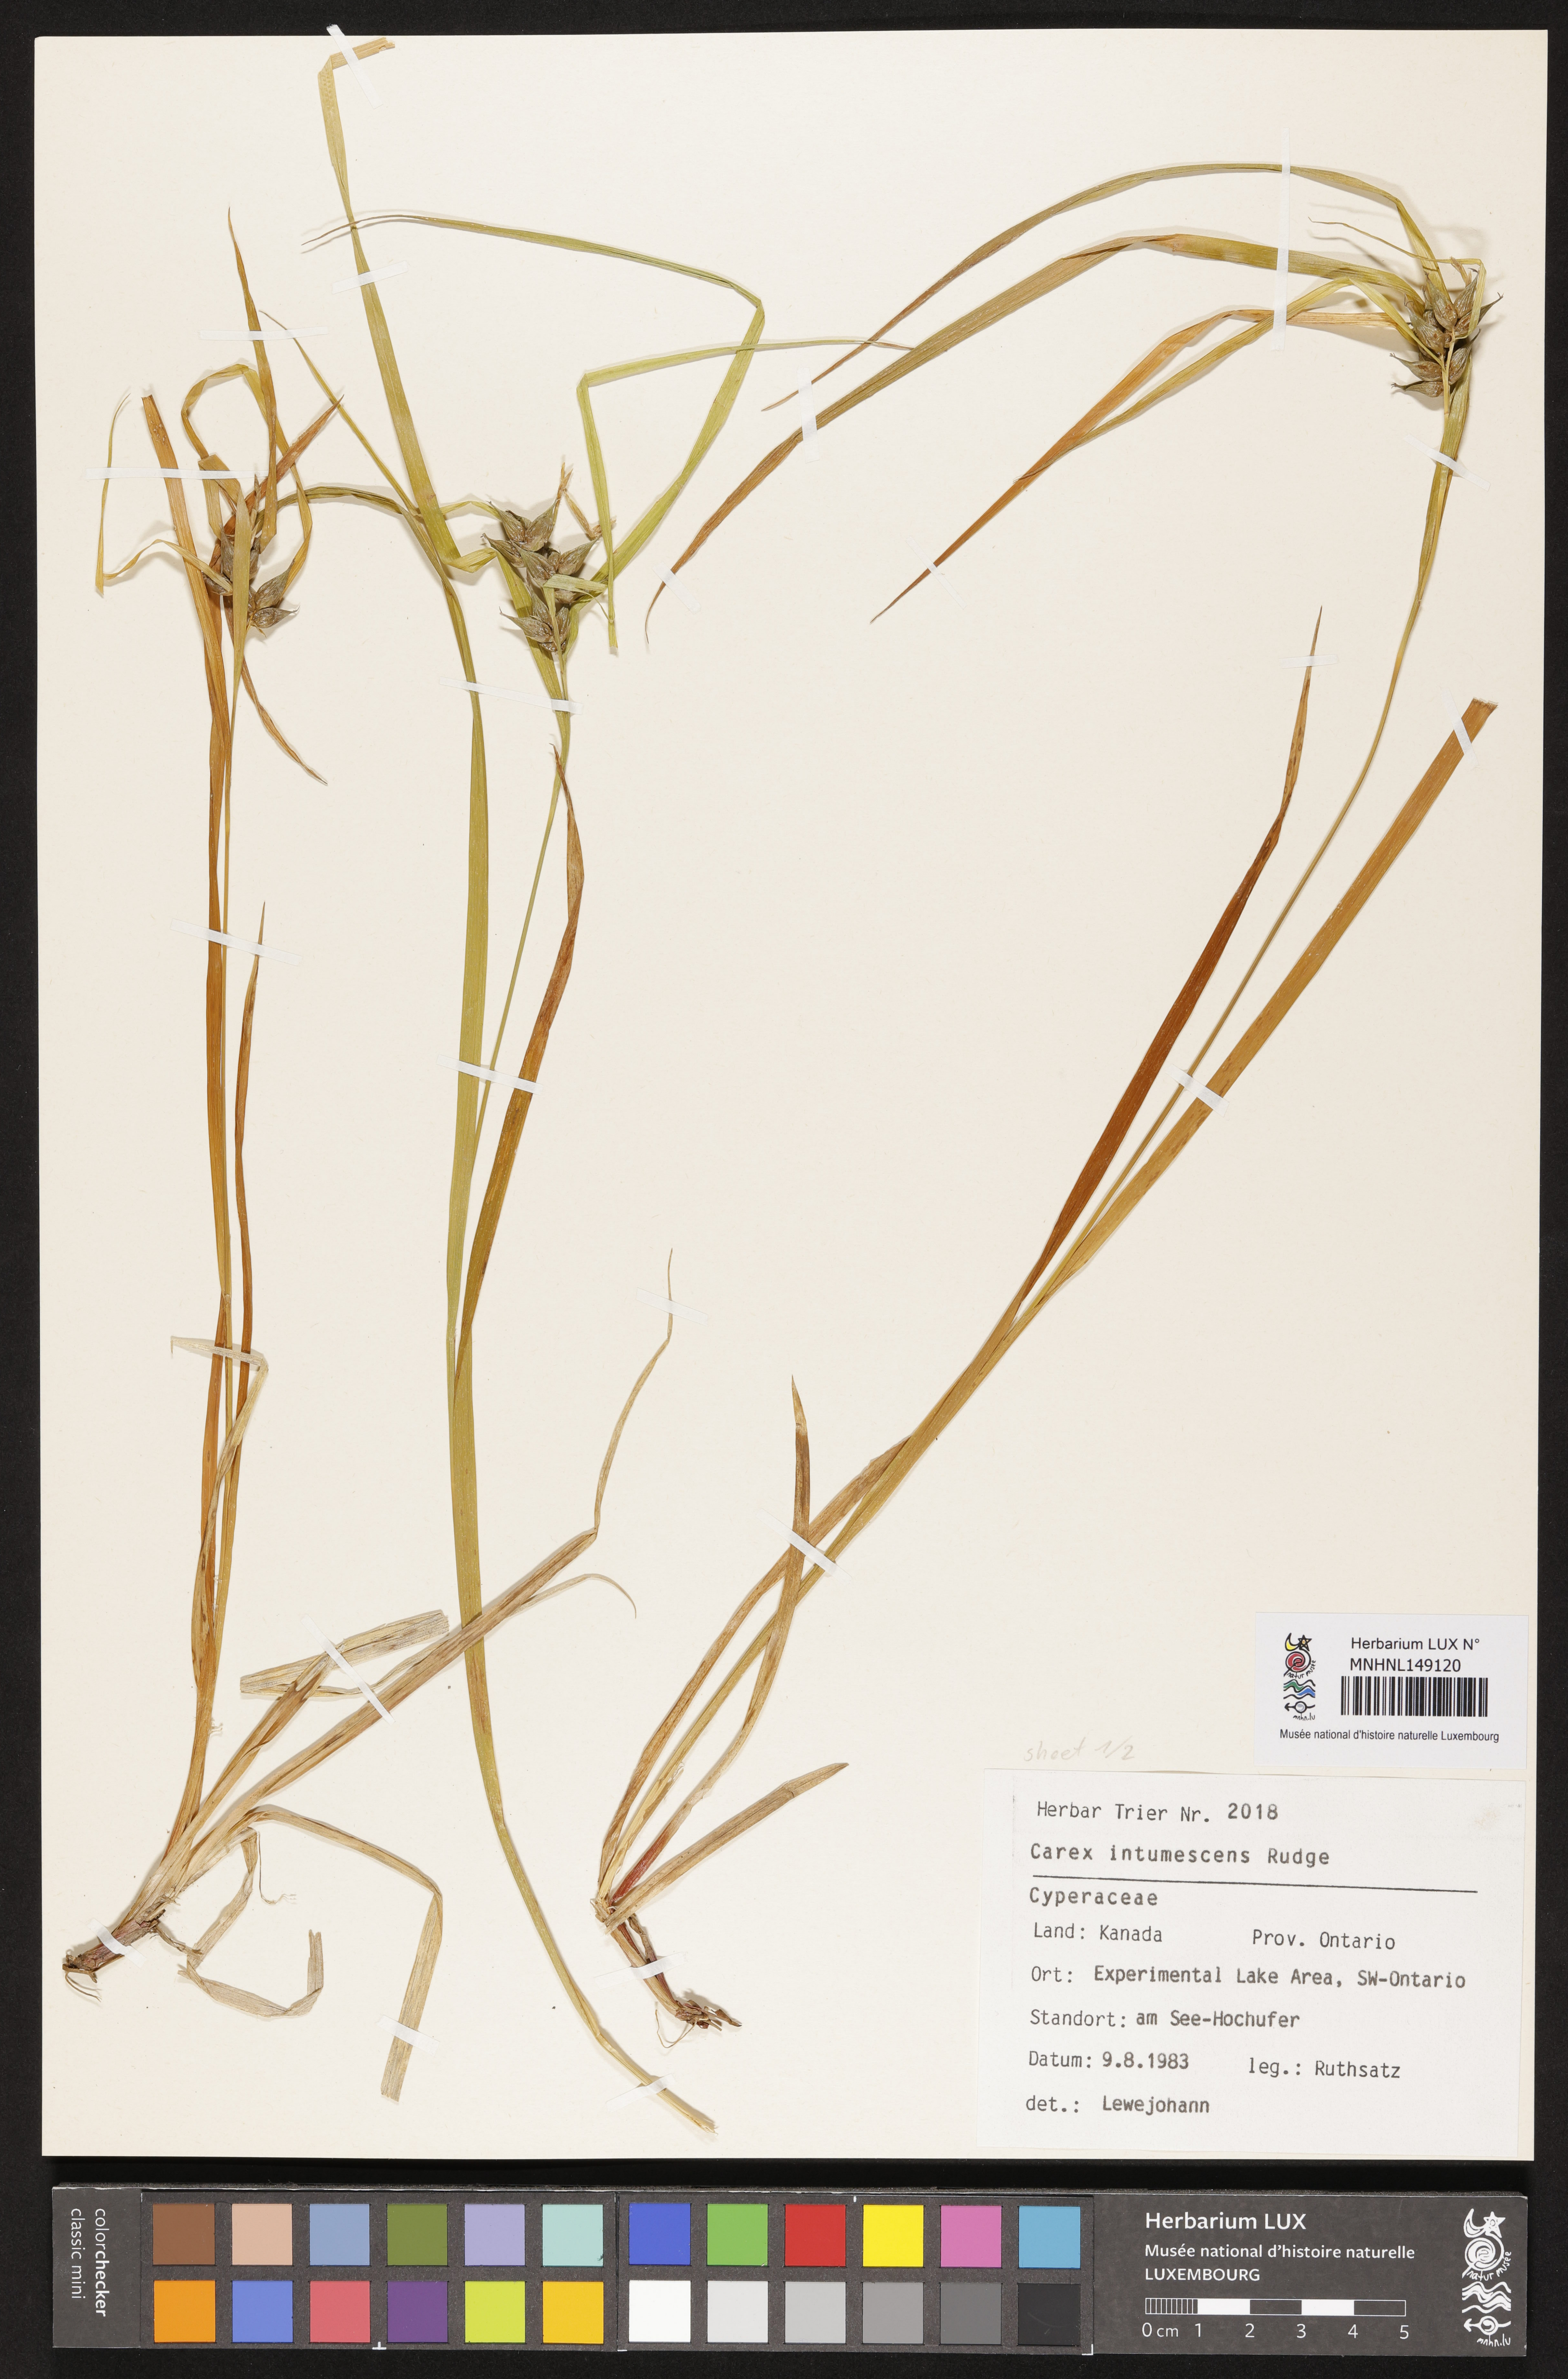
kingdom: Plantae
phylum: Tracheophyta
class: Liliopsida
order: Poales
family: Cyperaceae
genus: Carex
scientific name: Carex intumescens
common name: Greater bladder sedge
